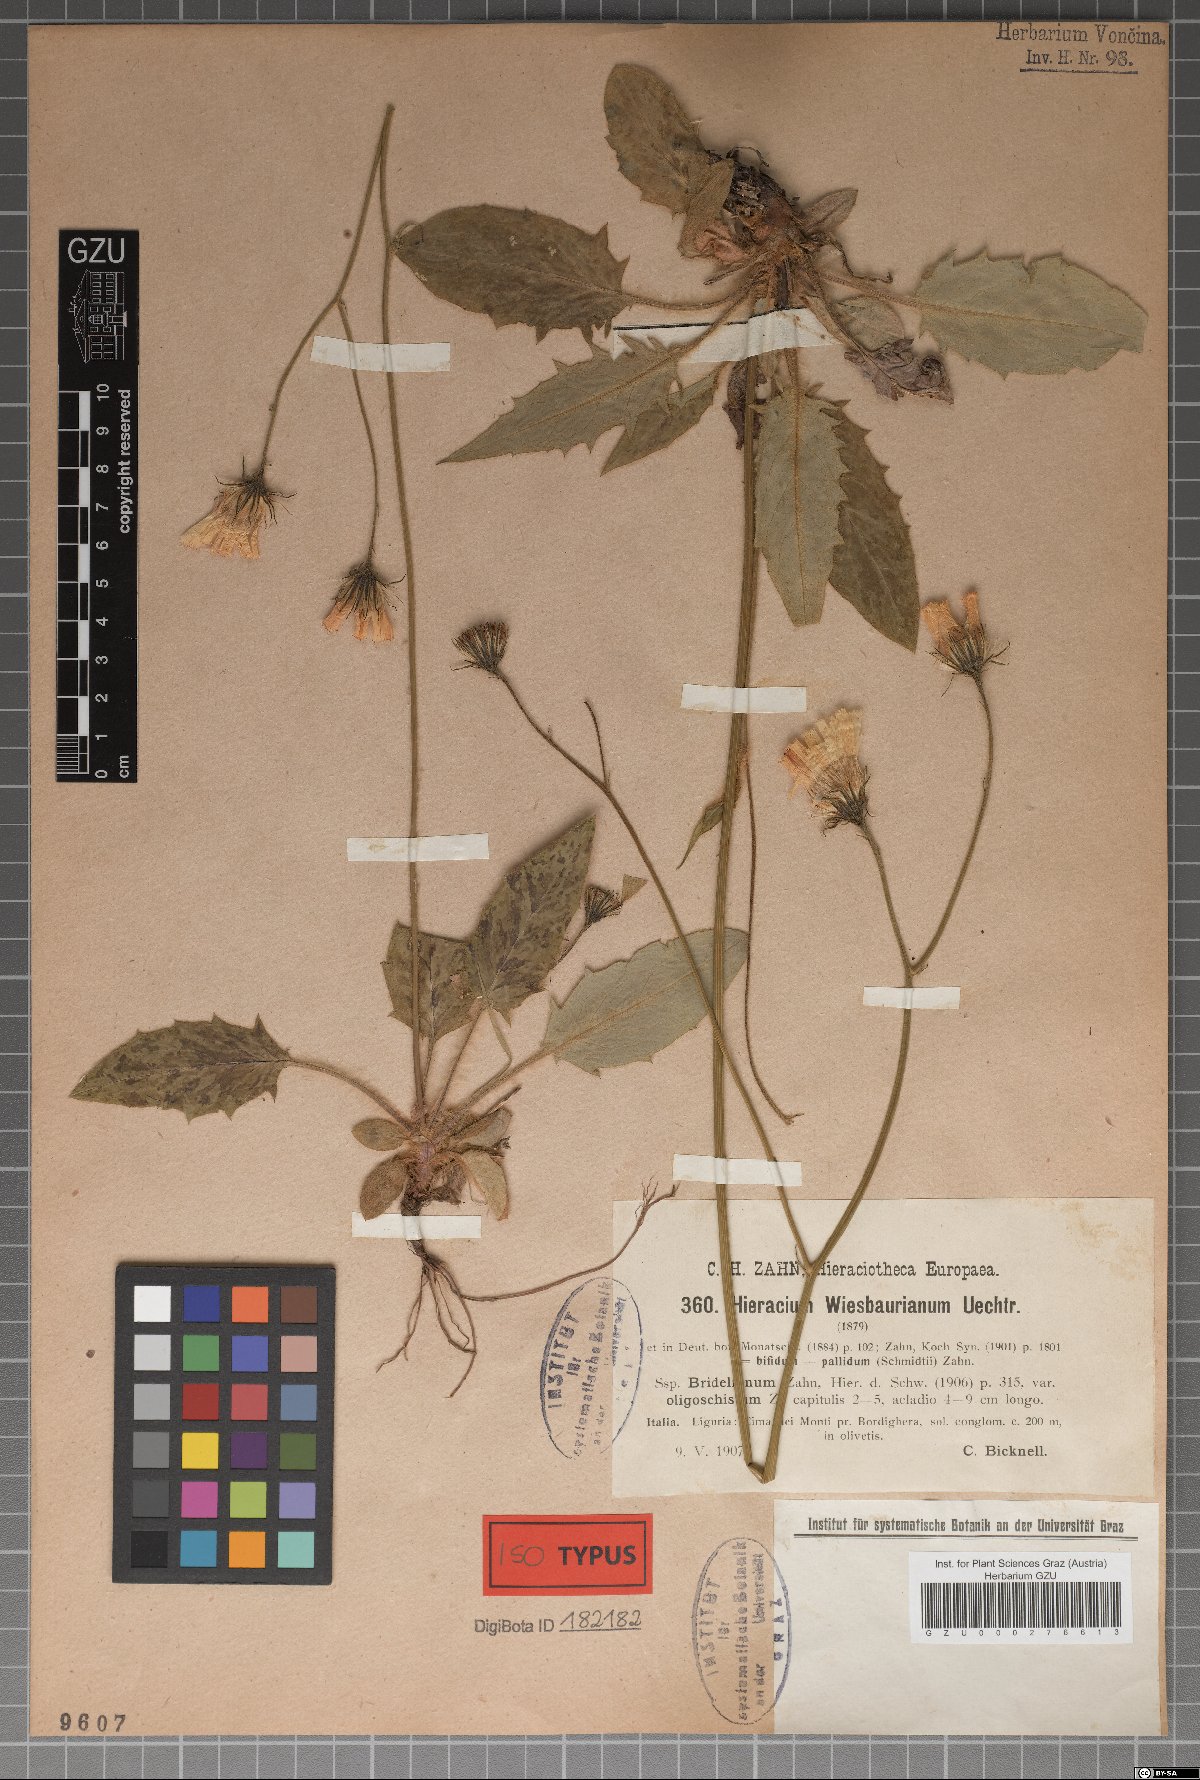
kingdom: Plantae
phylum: Tracheophyta
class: Magnoliopsida
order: Asterales
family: Asteraceae
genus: Hieracium
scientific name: Hieracium hypochoeroides
